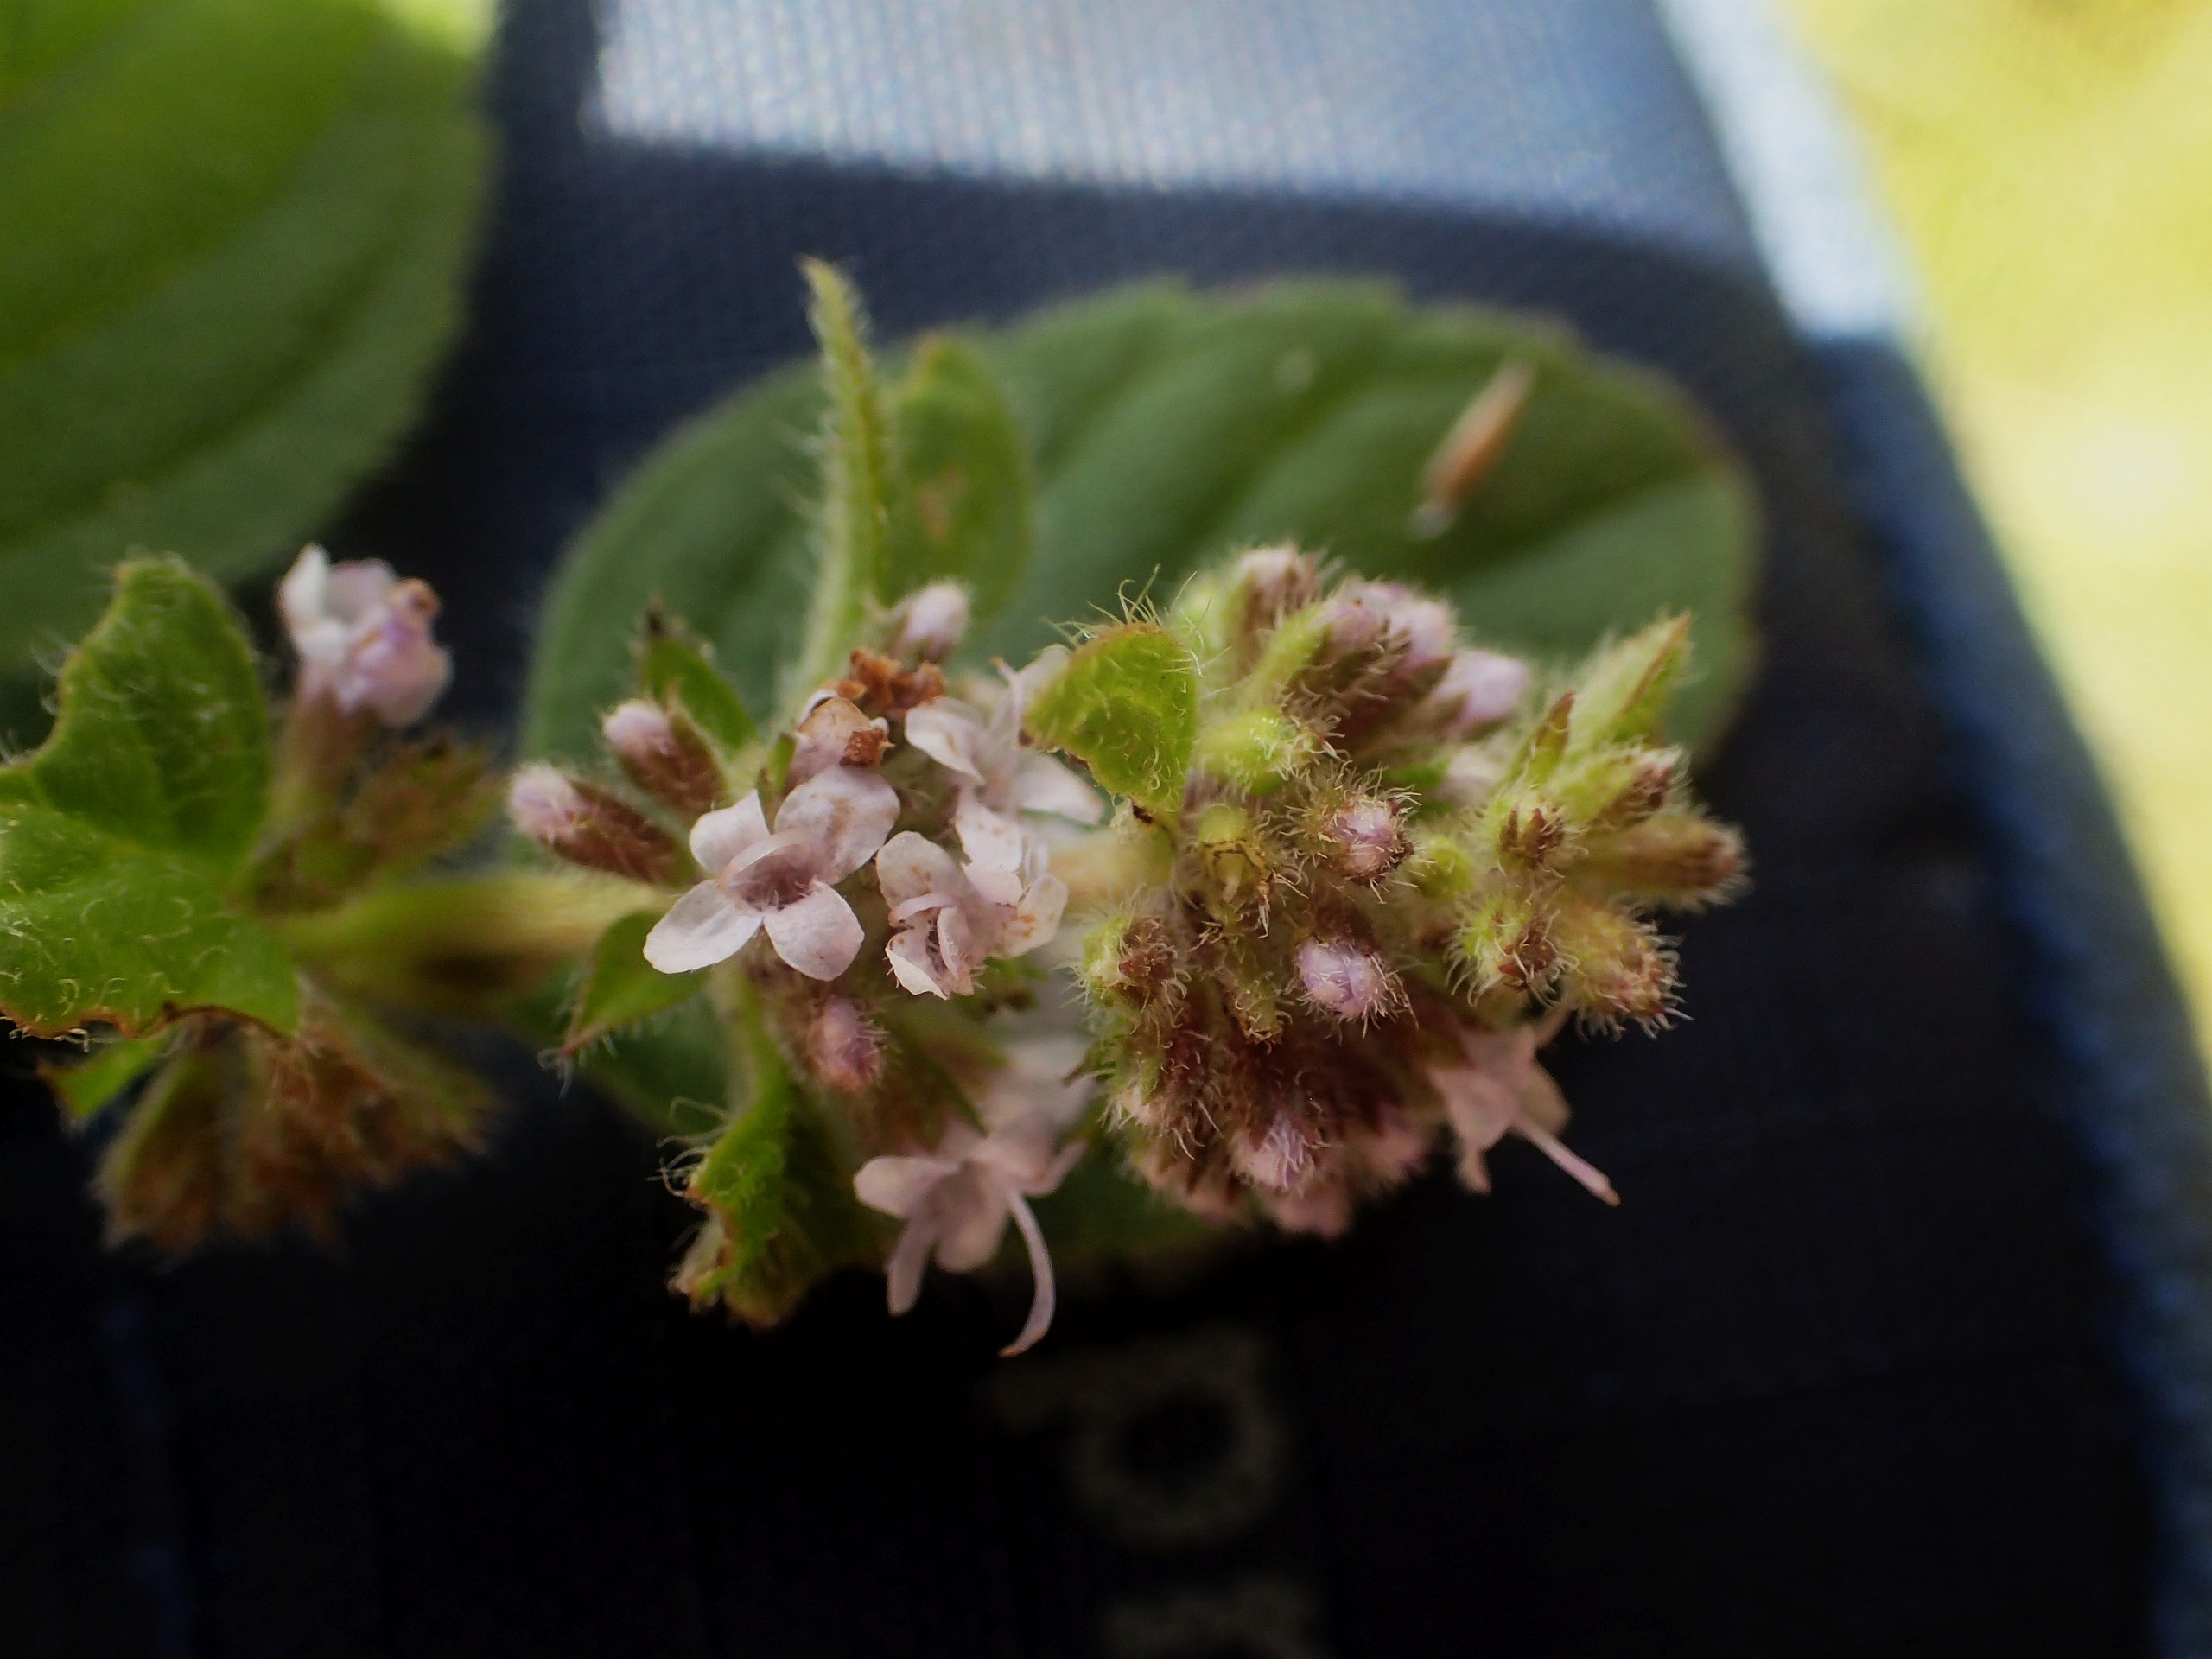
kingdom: Plantae
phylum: Tracheophyta
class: Magnoliopsida
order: Lamiales
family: Lamiaceae
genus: Mentha
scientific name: Mentha arvensis
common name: Ager-mynte
